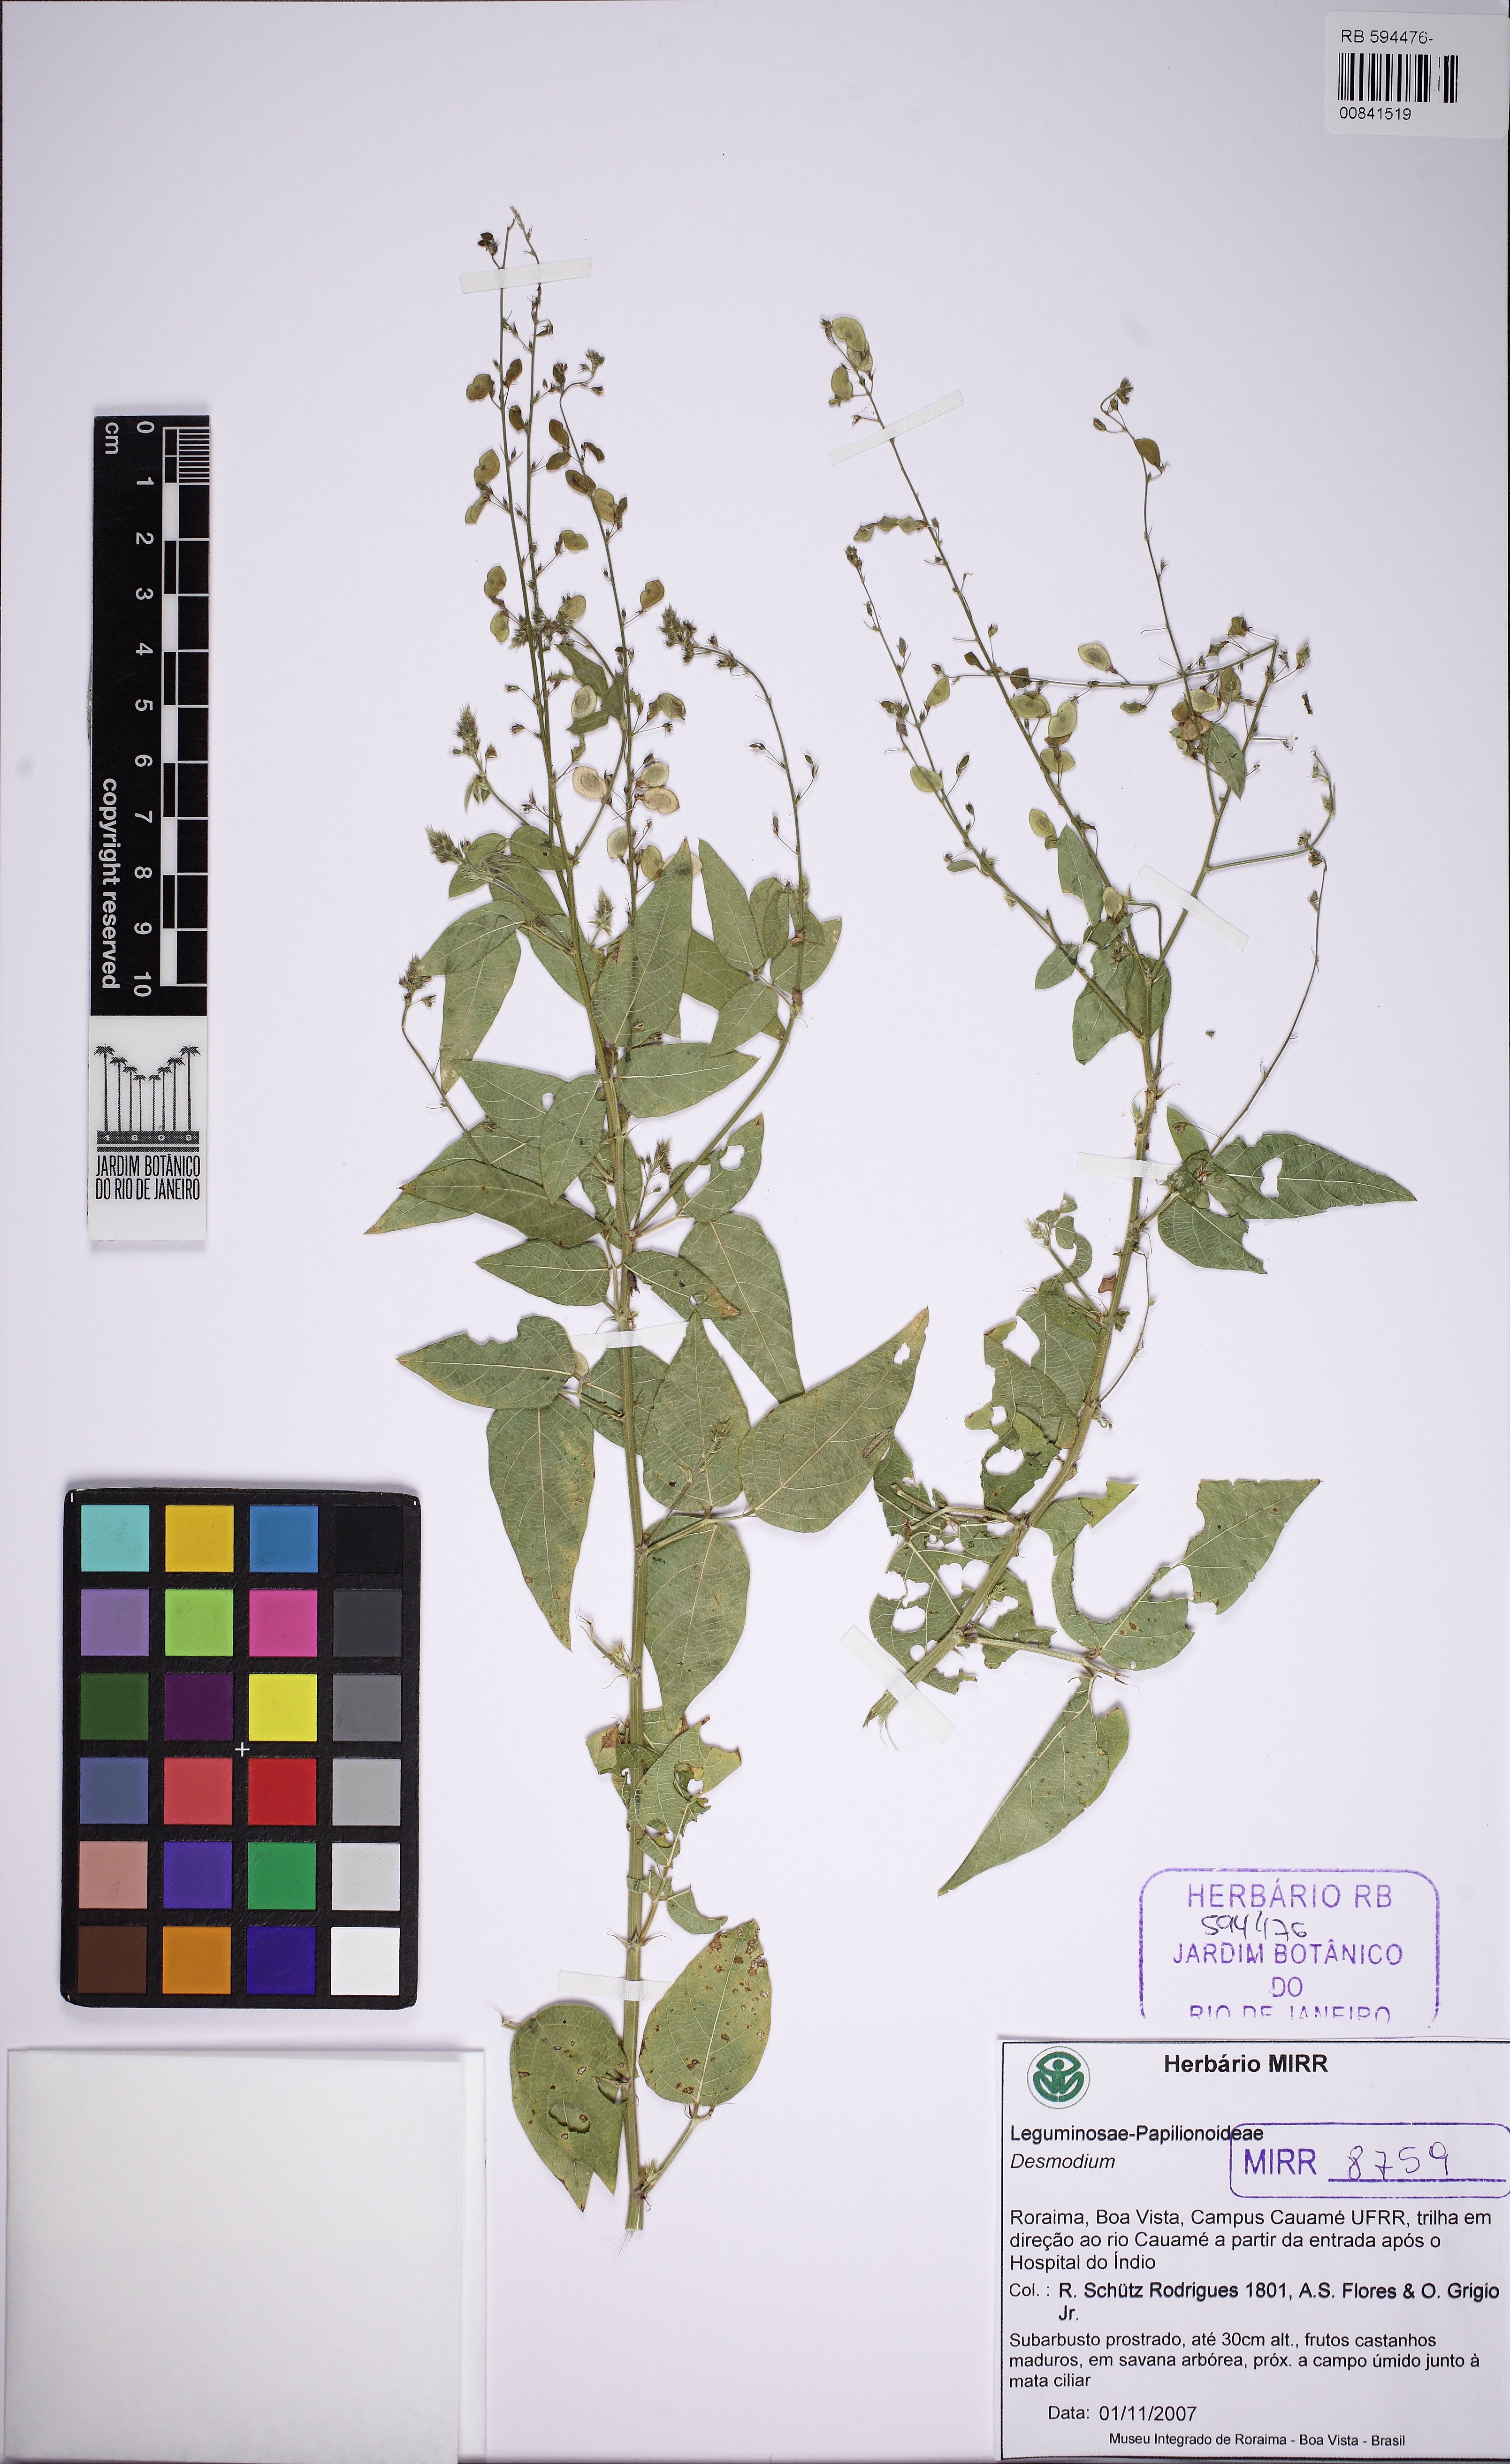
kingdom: Plantae
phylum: Tracheophyta
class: Magnoliopsida
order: Fabales
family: Fabaceae
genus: Desmodium
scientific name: Desmodium glabrum
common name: Zarzabacoa dulce
